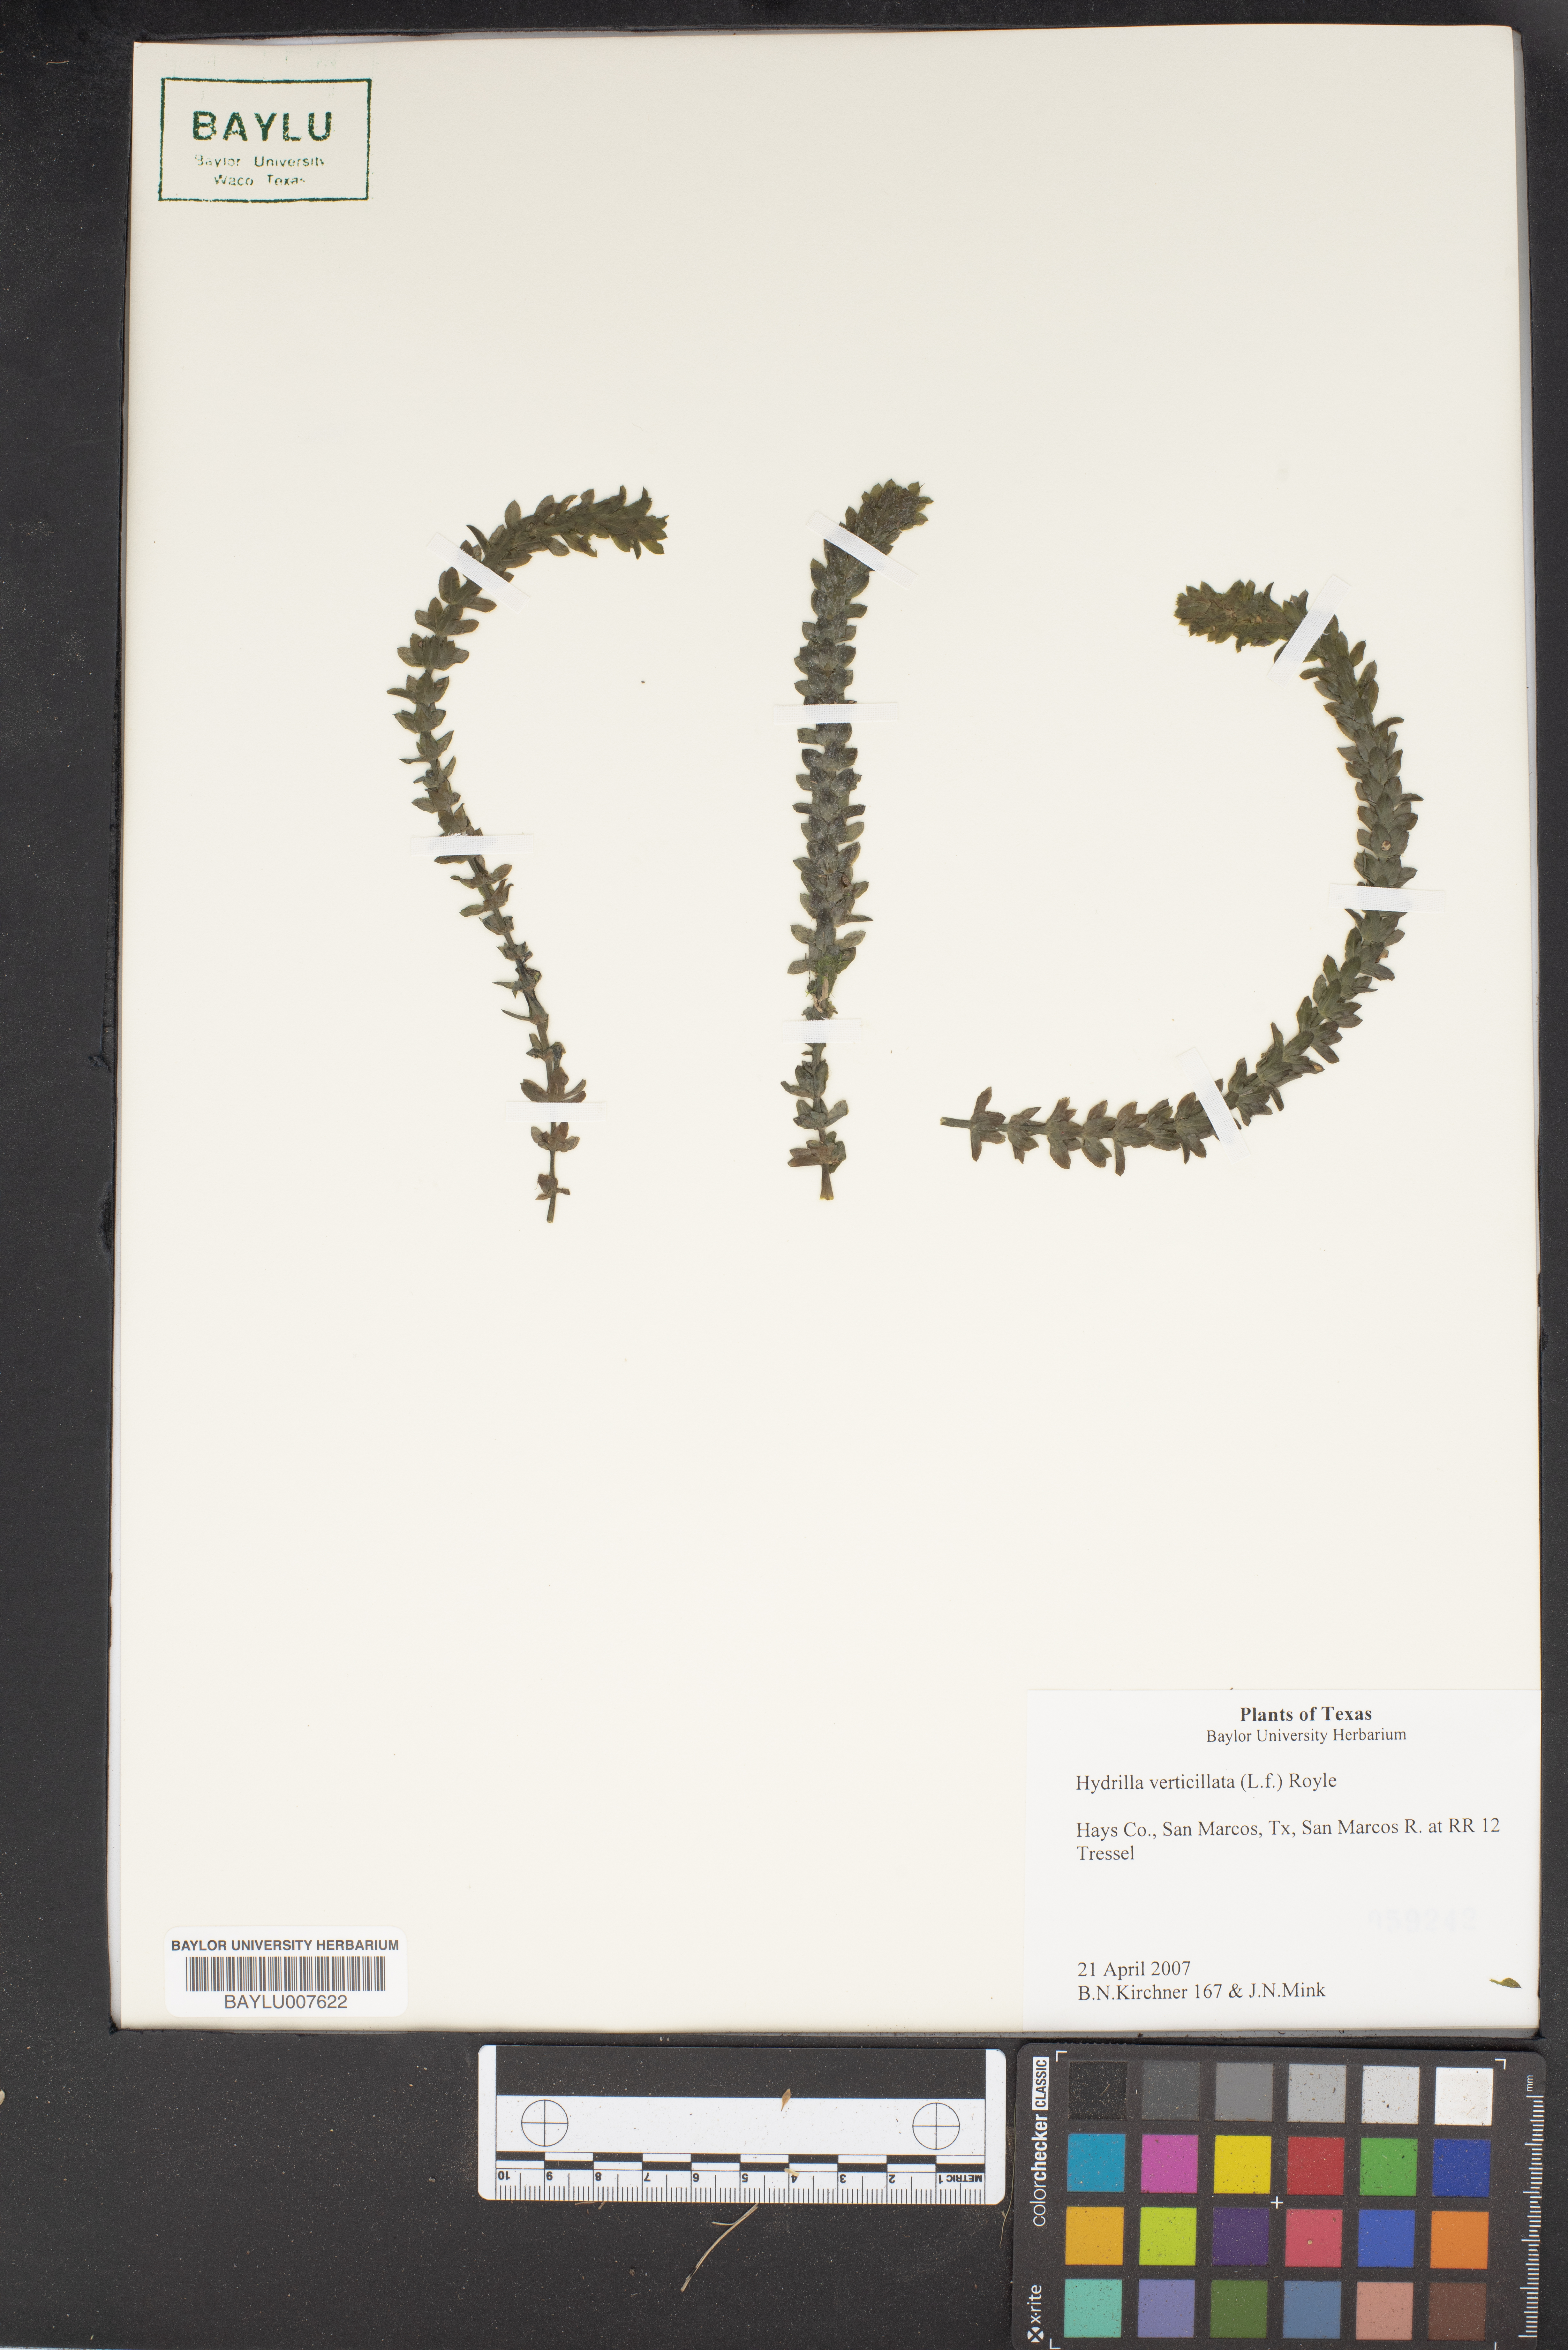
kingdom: Plantae
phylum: Tracheophyta
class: Liliopsida
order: Alismatales
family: Hydrocharitaceae
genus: Hydrilla
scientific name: Hydrilla verticillata
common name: Florida-elodea
